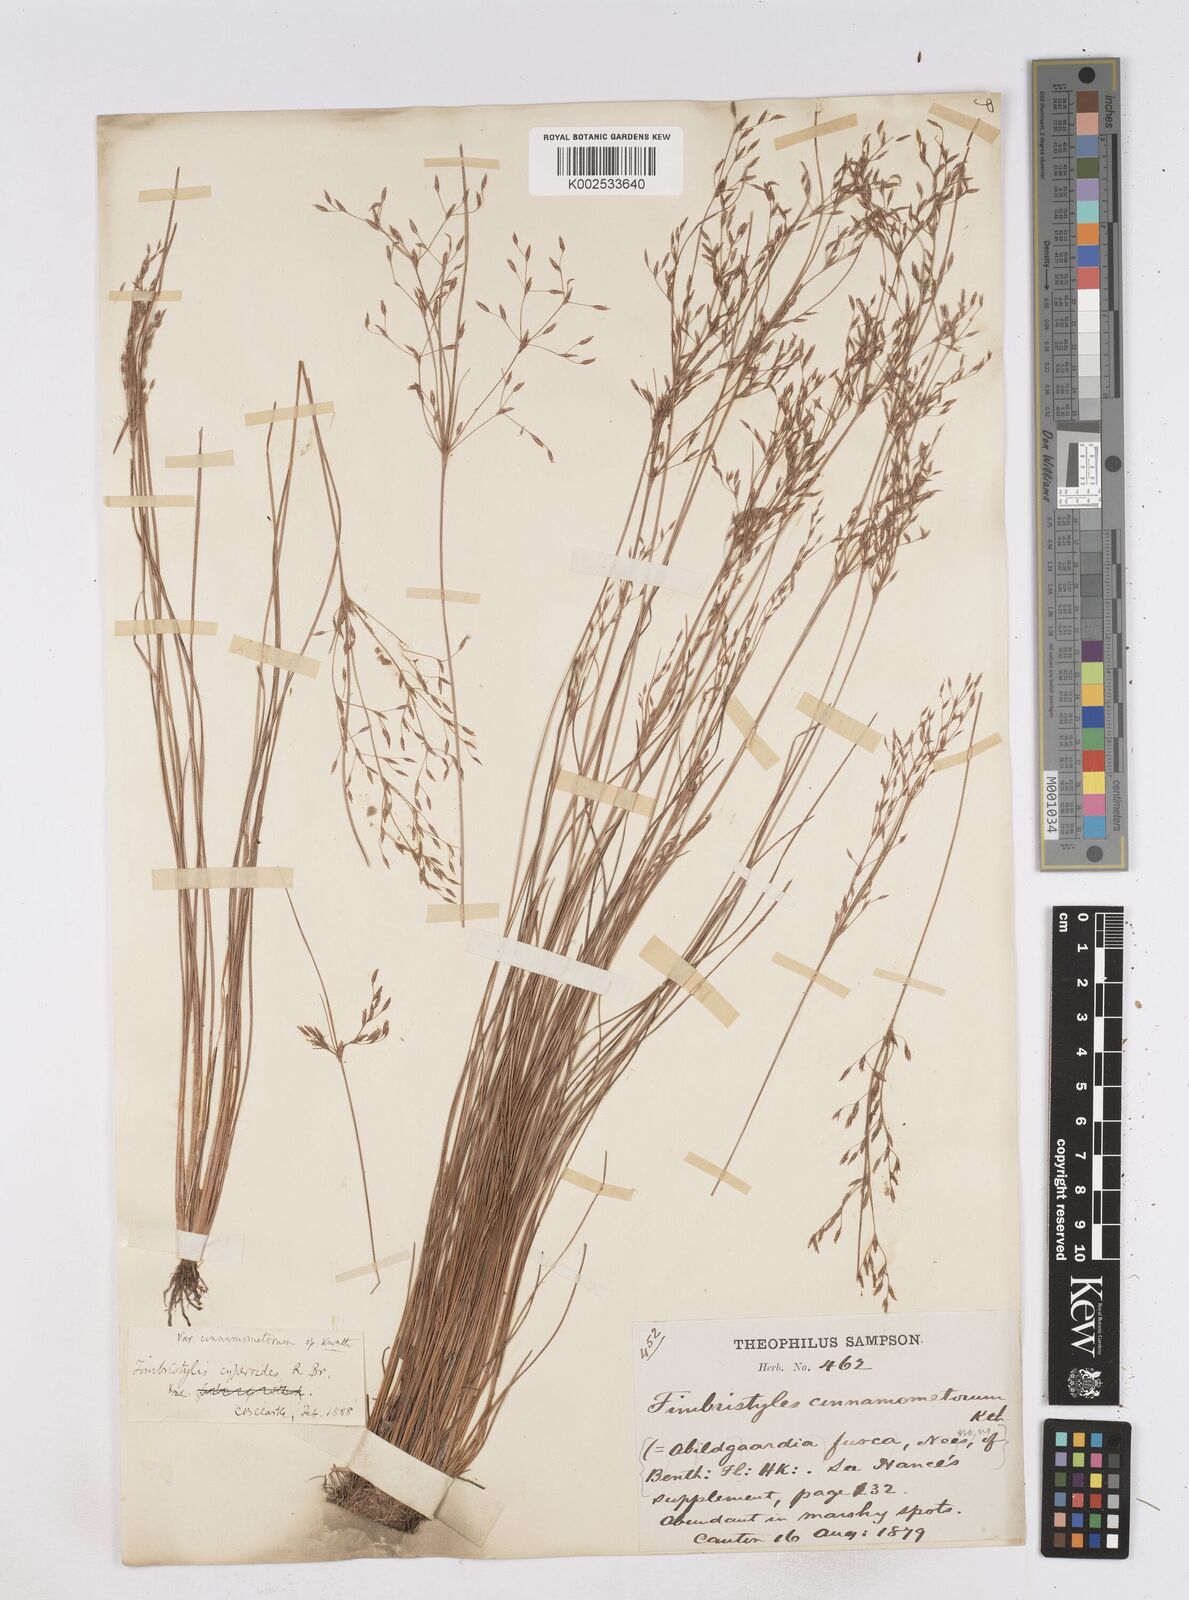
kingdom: Plantae
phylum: Tracheophyta
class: Liliopsida
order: Poales
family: Cyperaceae
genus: Fimbristylis
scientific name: Fimbristylis cinnamometorum
